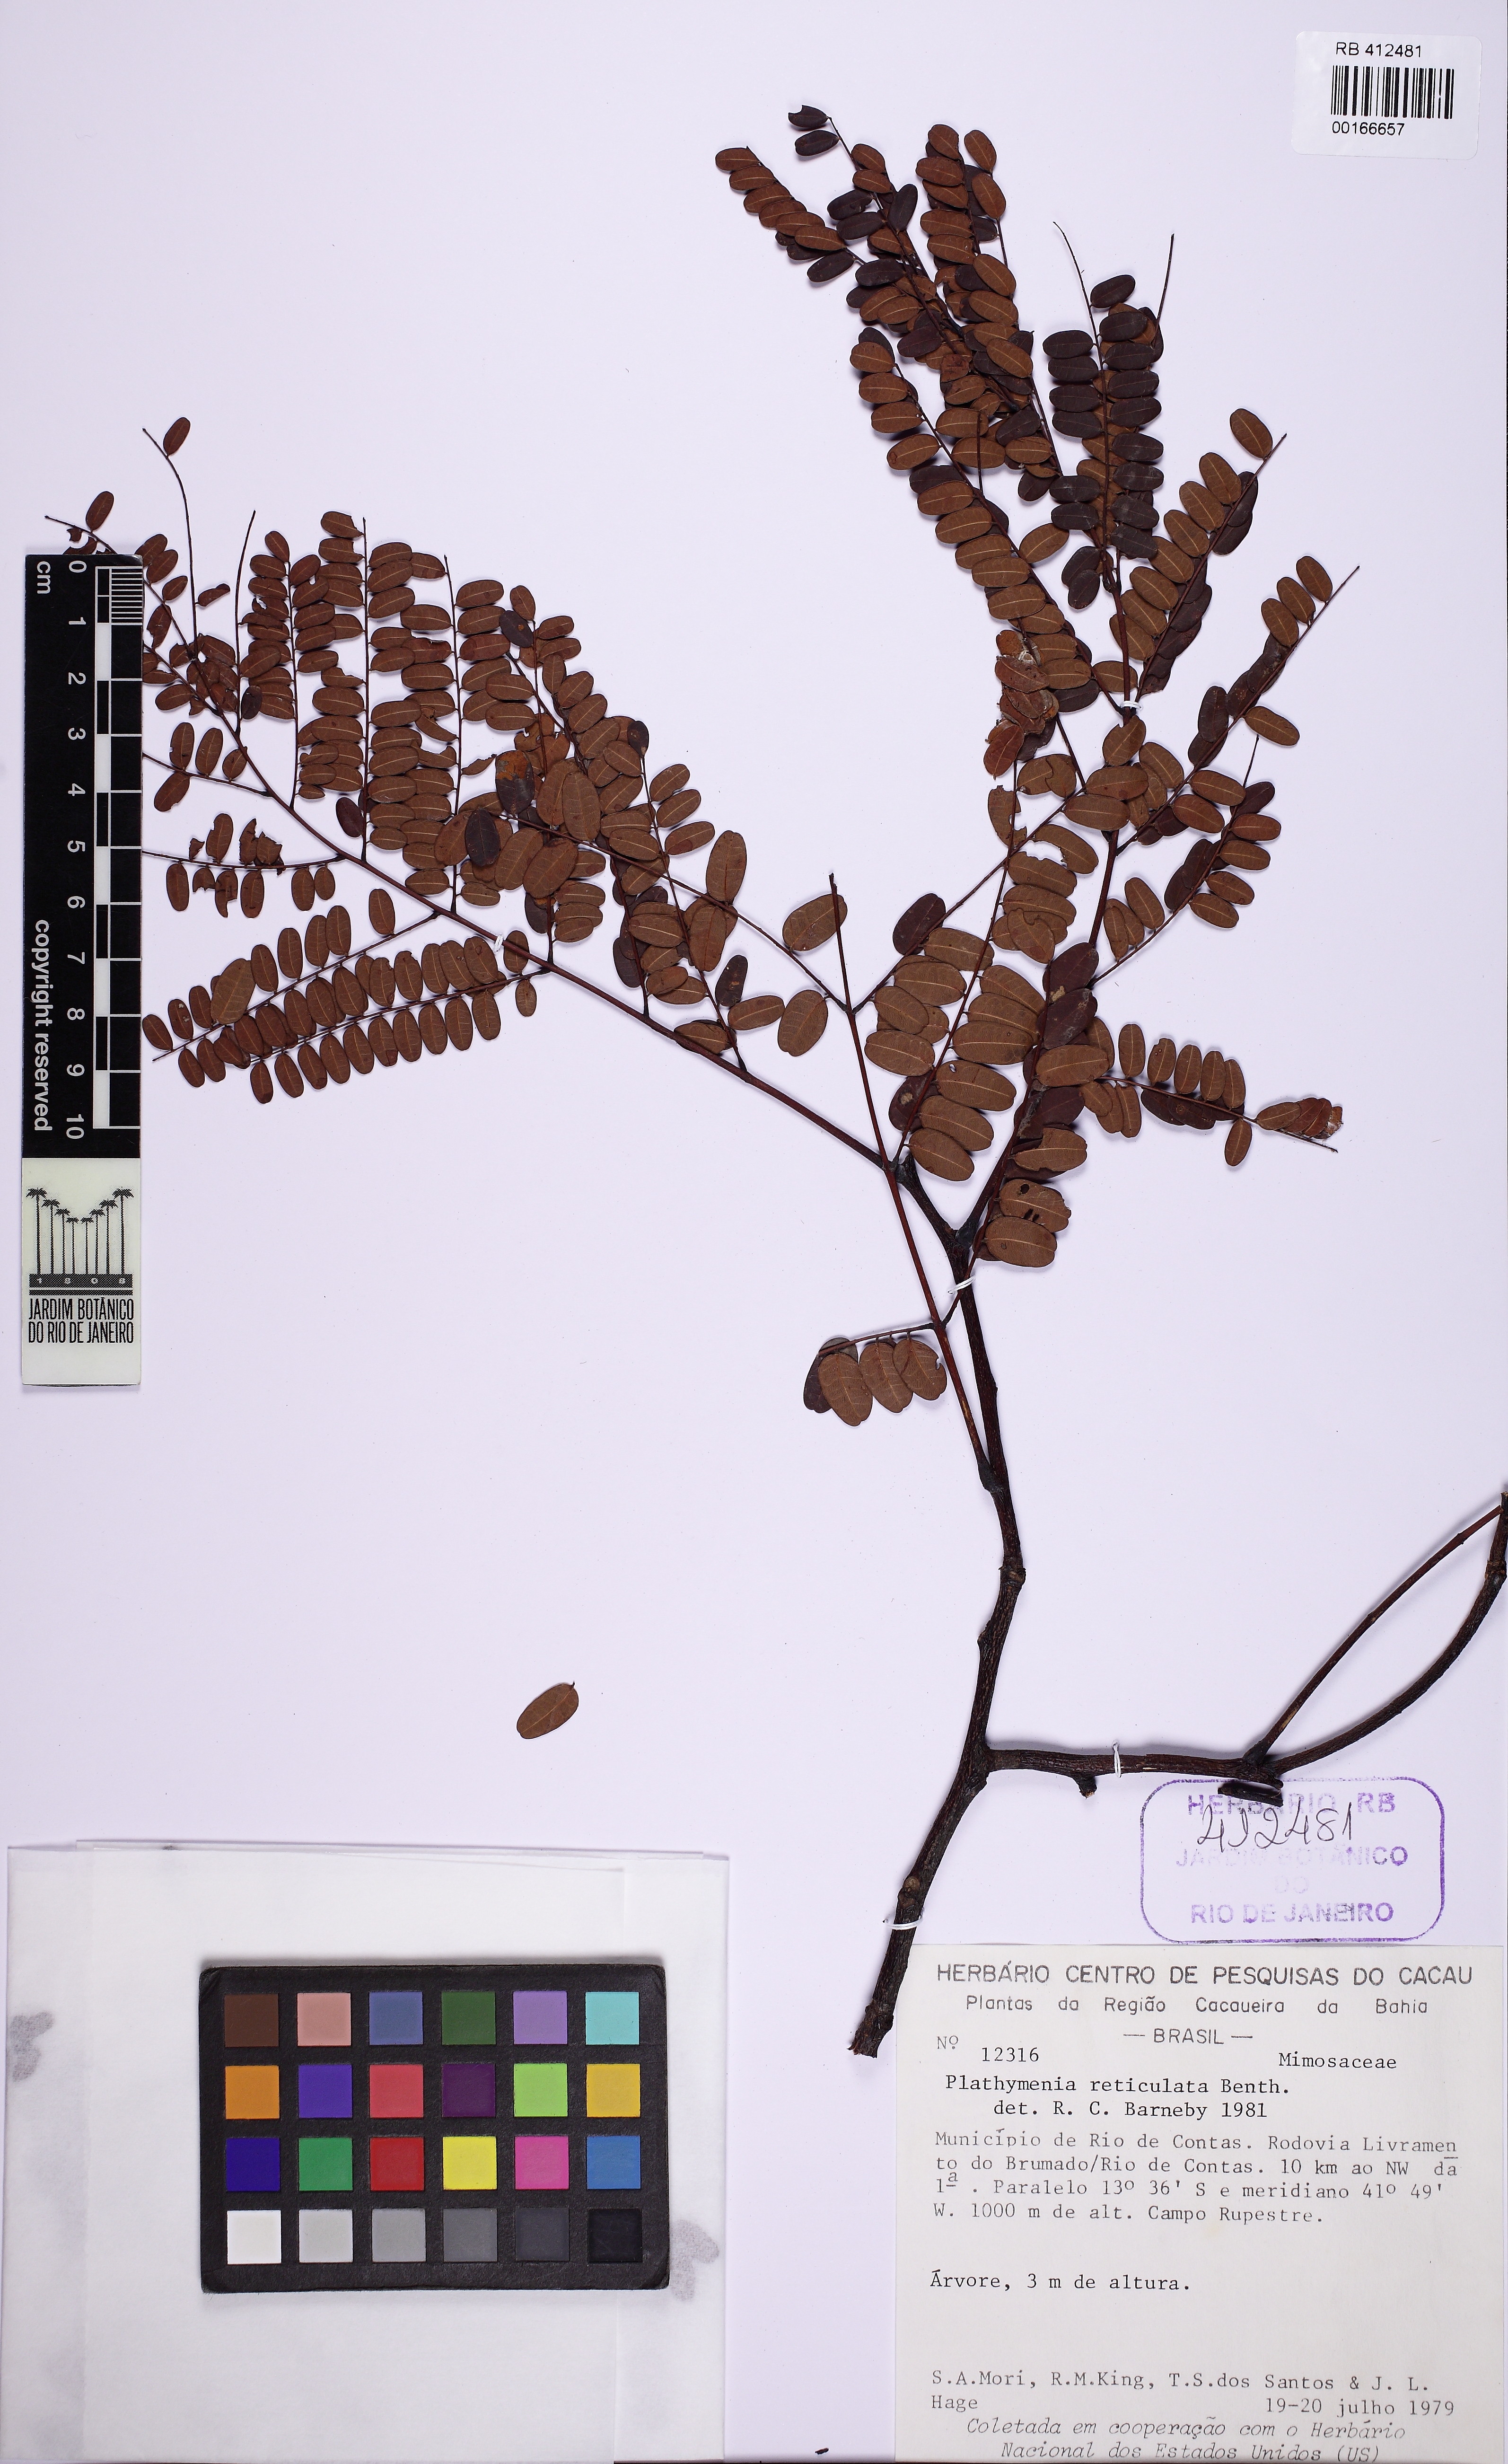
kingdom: Plantae
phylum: Tracheophyta
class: Magnoliopsida
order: Fabales
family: Fabaceae
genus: Plathymenia
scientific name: Plathymenia reticulata
